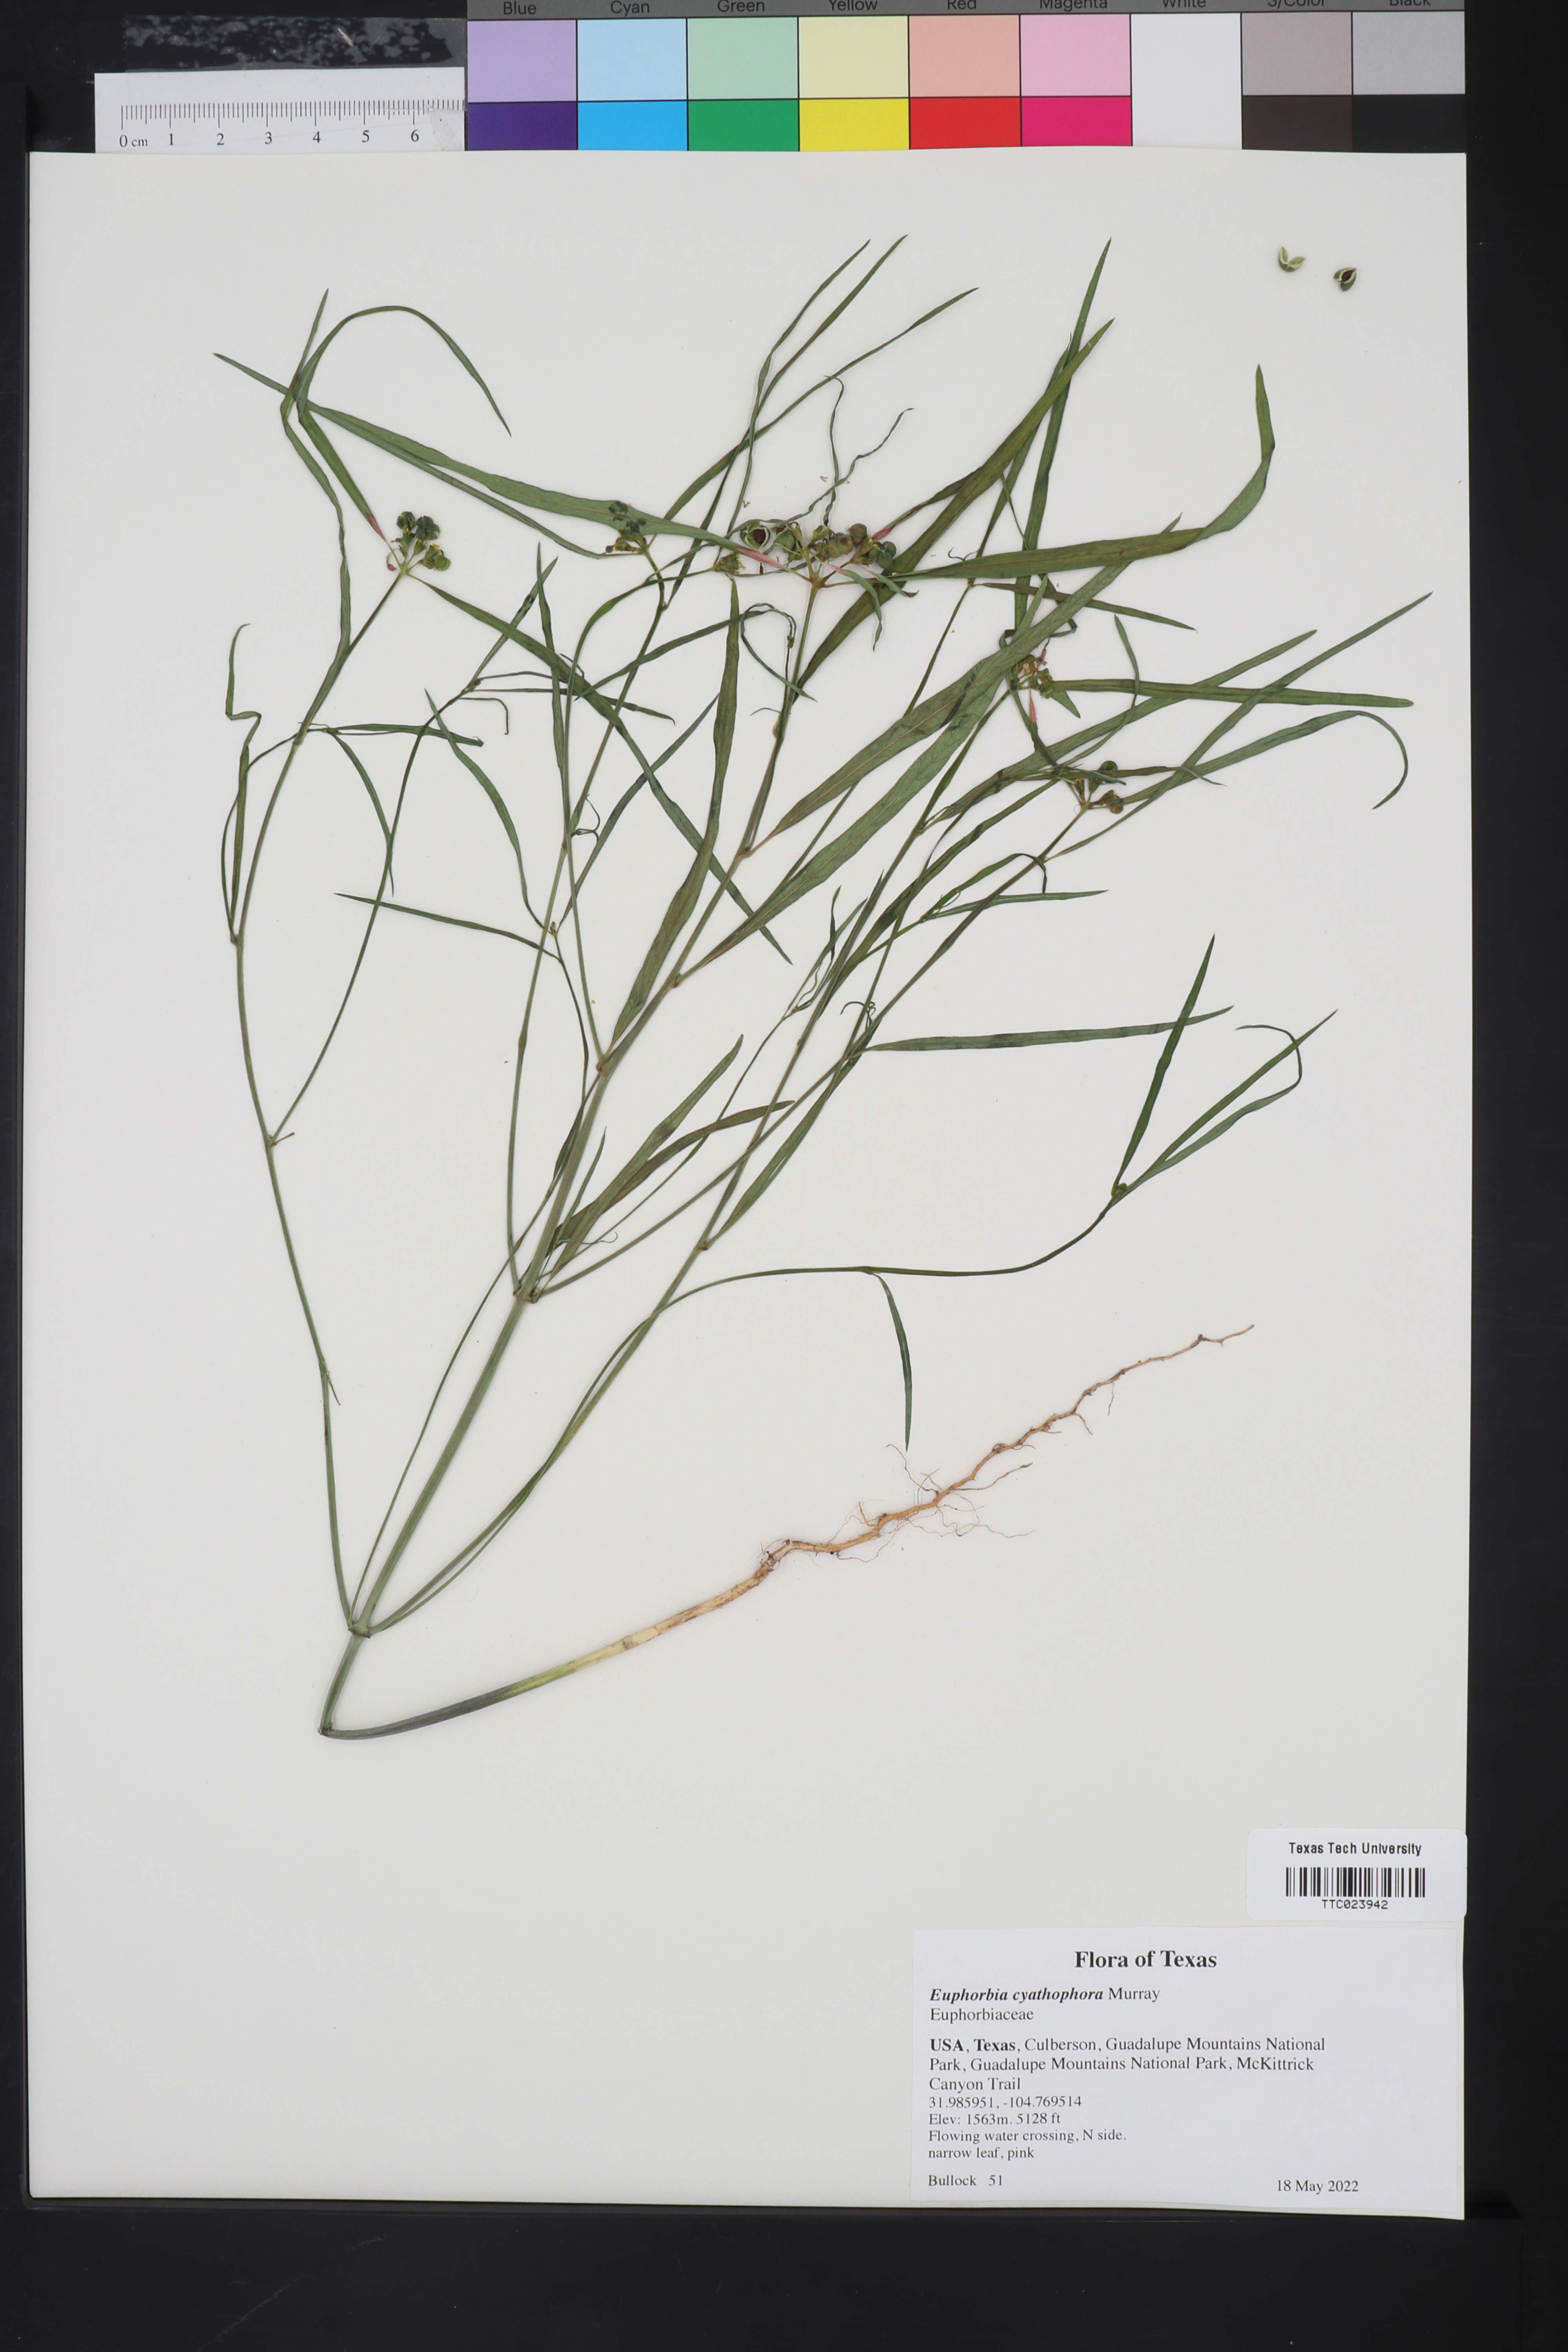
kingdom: Plantae
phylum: Tracheophyta
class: Magnoliopsida
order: Malpighiales
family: Euphorbiaceae
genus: Euphorbia
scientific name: Euphorbia heterophylla
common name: Mexican fireplant
